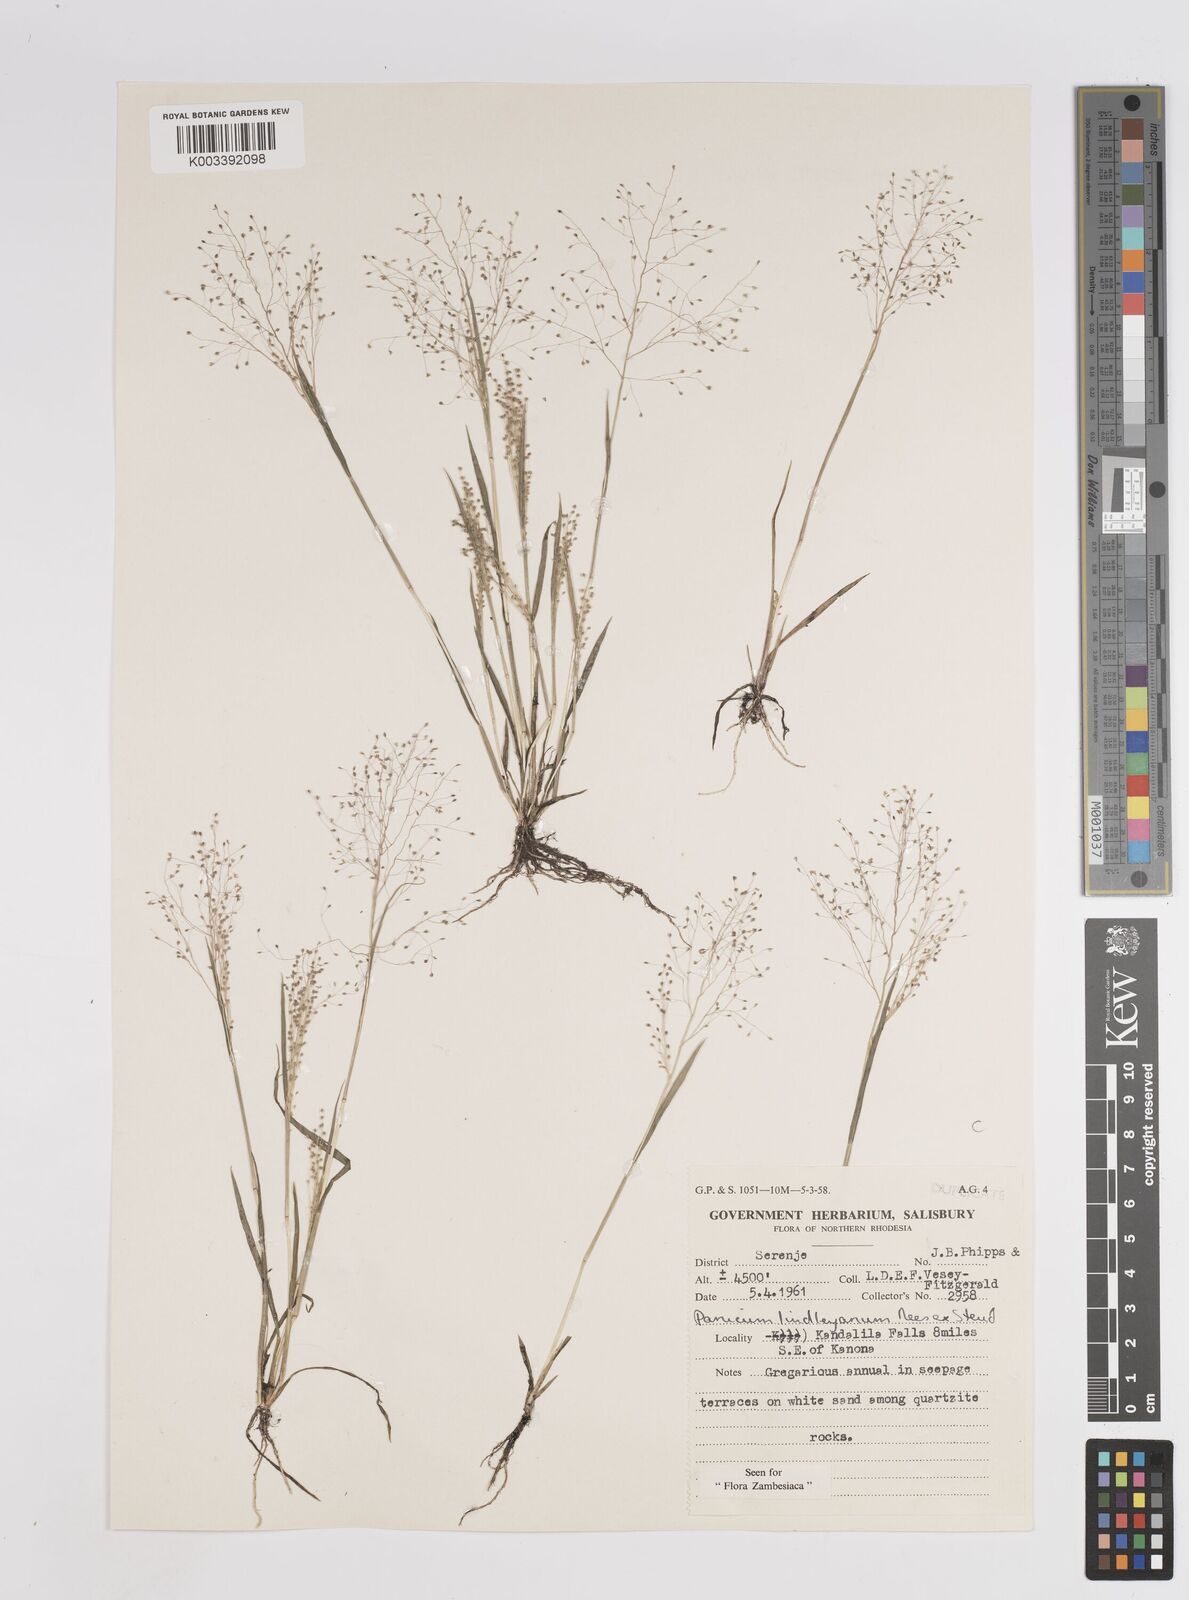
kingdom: Plantae
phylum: Tracheophyta
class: Liliopsida
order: Poales
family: Poaceae
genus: Trichanthecium
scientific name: Trichanthecium tenellum
